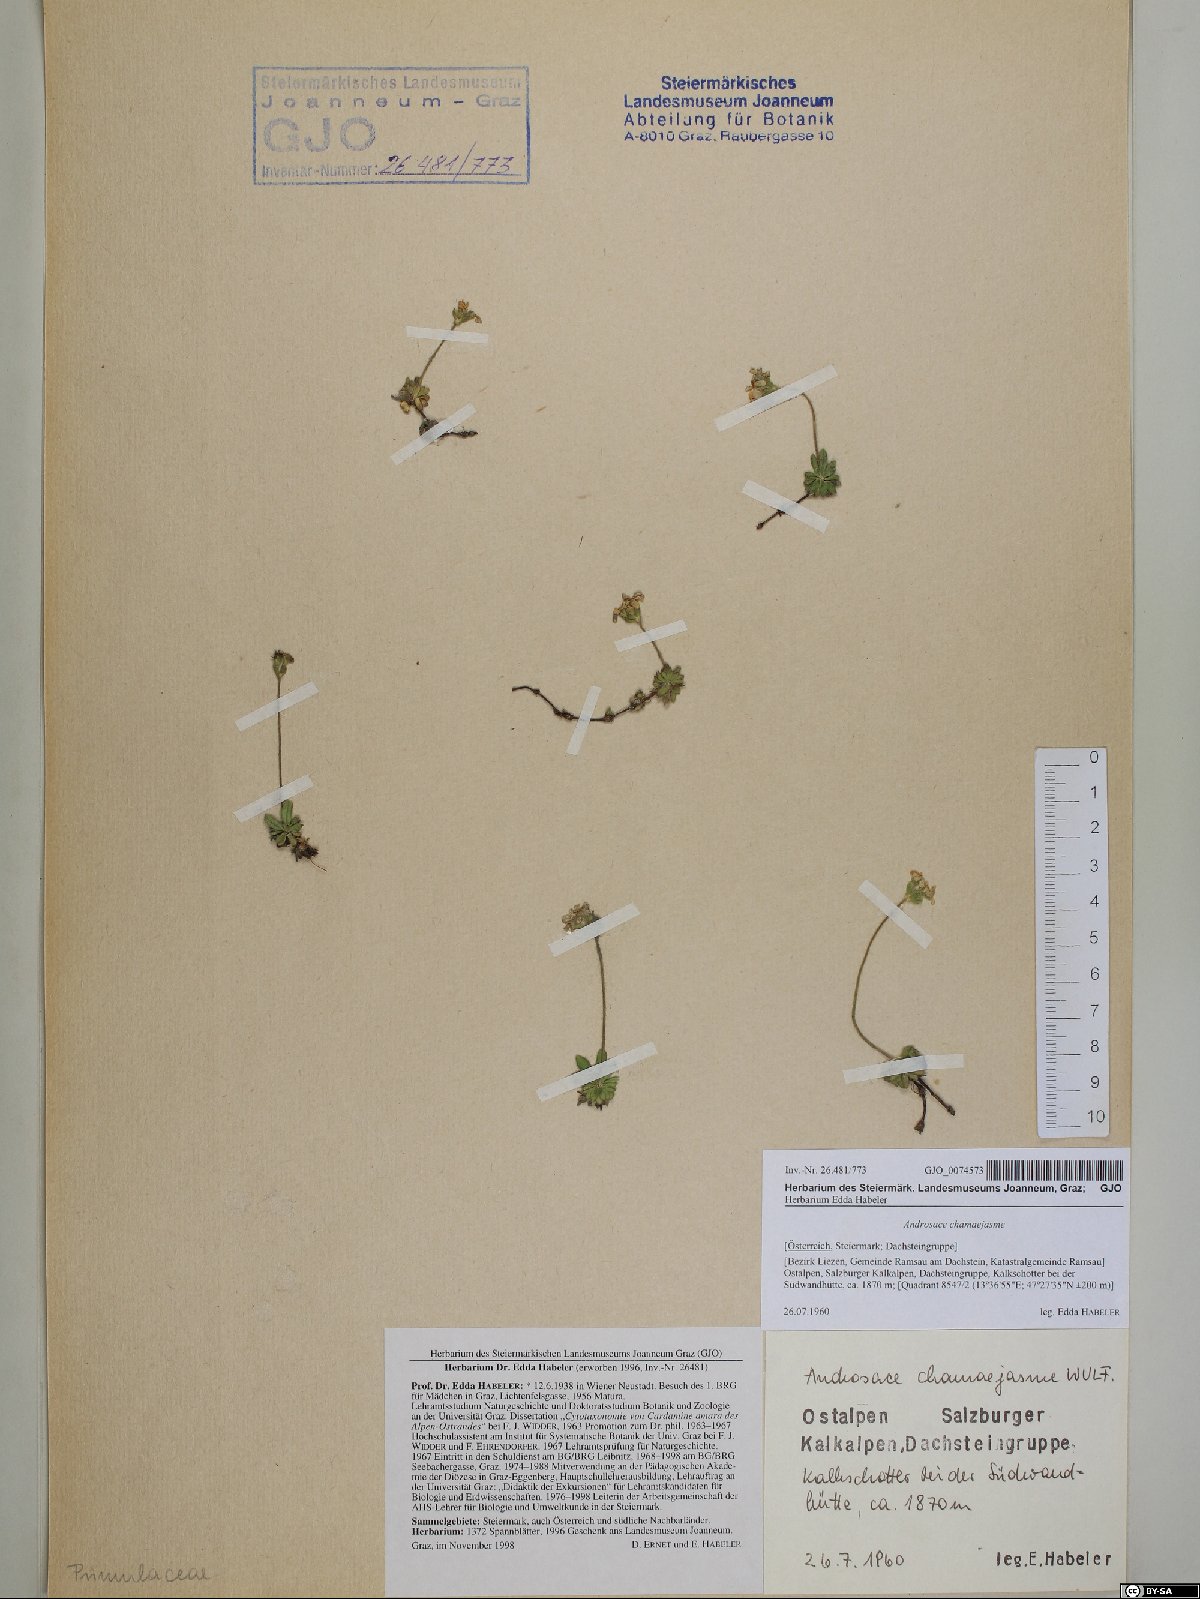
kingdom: Plantae
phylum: Tracheophyta
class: Magnoliopsida
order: Ericales
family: Primulaceae
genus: Androsace
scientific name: Androsace chamaejasme
